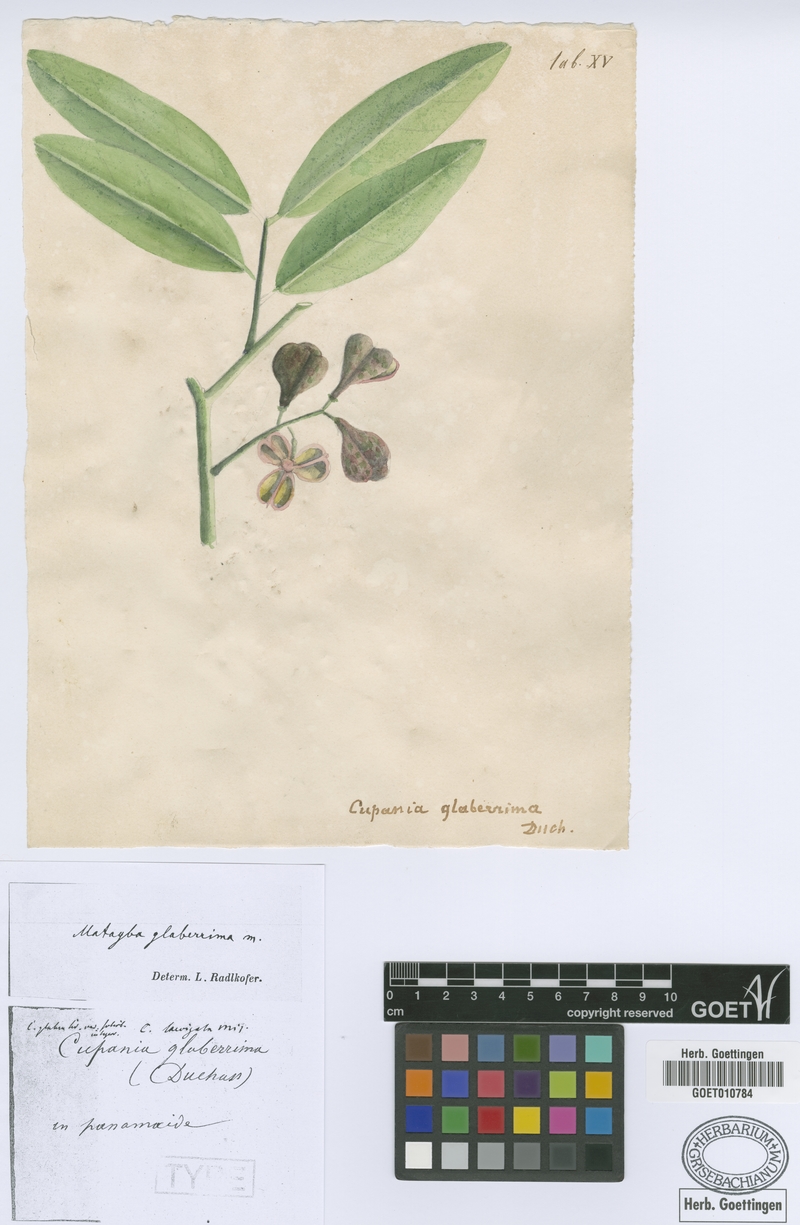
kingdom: Plantae
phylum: Tracheophyta
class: Magnoliopsida
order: Sapindales
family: Sapindaceae
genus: Matayba
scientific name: Matayba glaberrima
